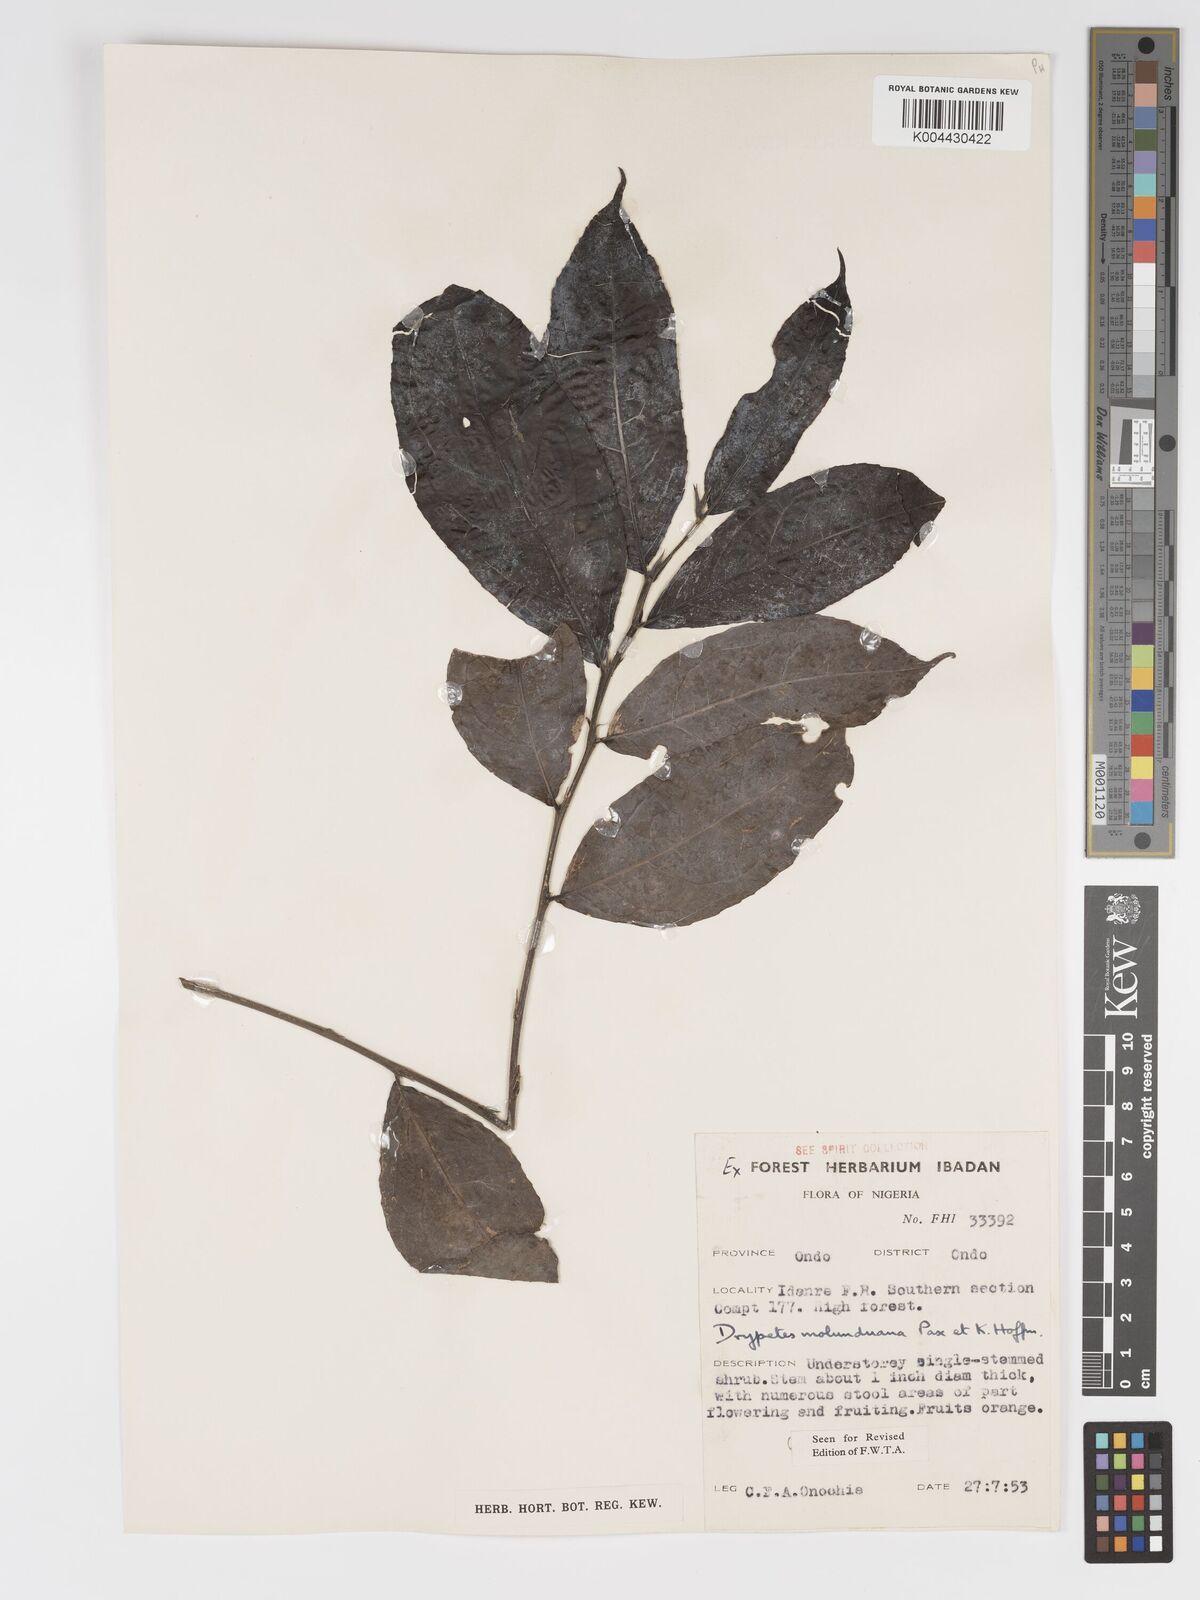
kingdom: Plantae
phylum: Tracheophyta
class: Magnoliopsida
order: Malpighiales
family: Putranjivaceae
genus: Drypetes
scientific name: Drypetes molunduana
